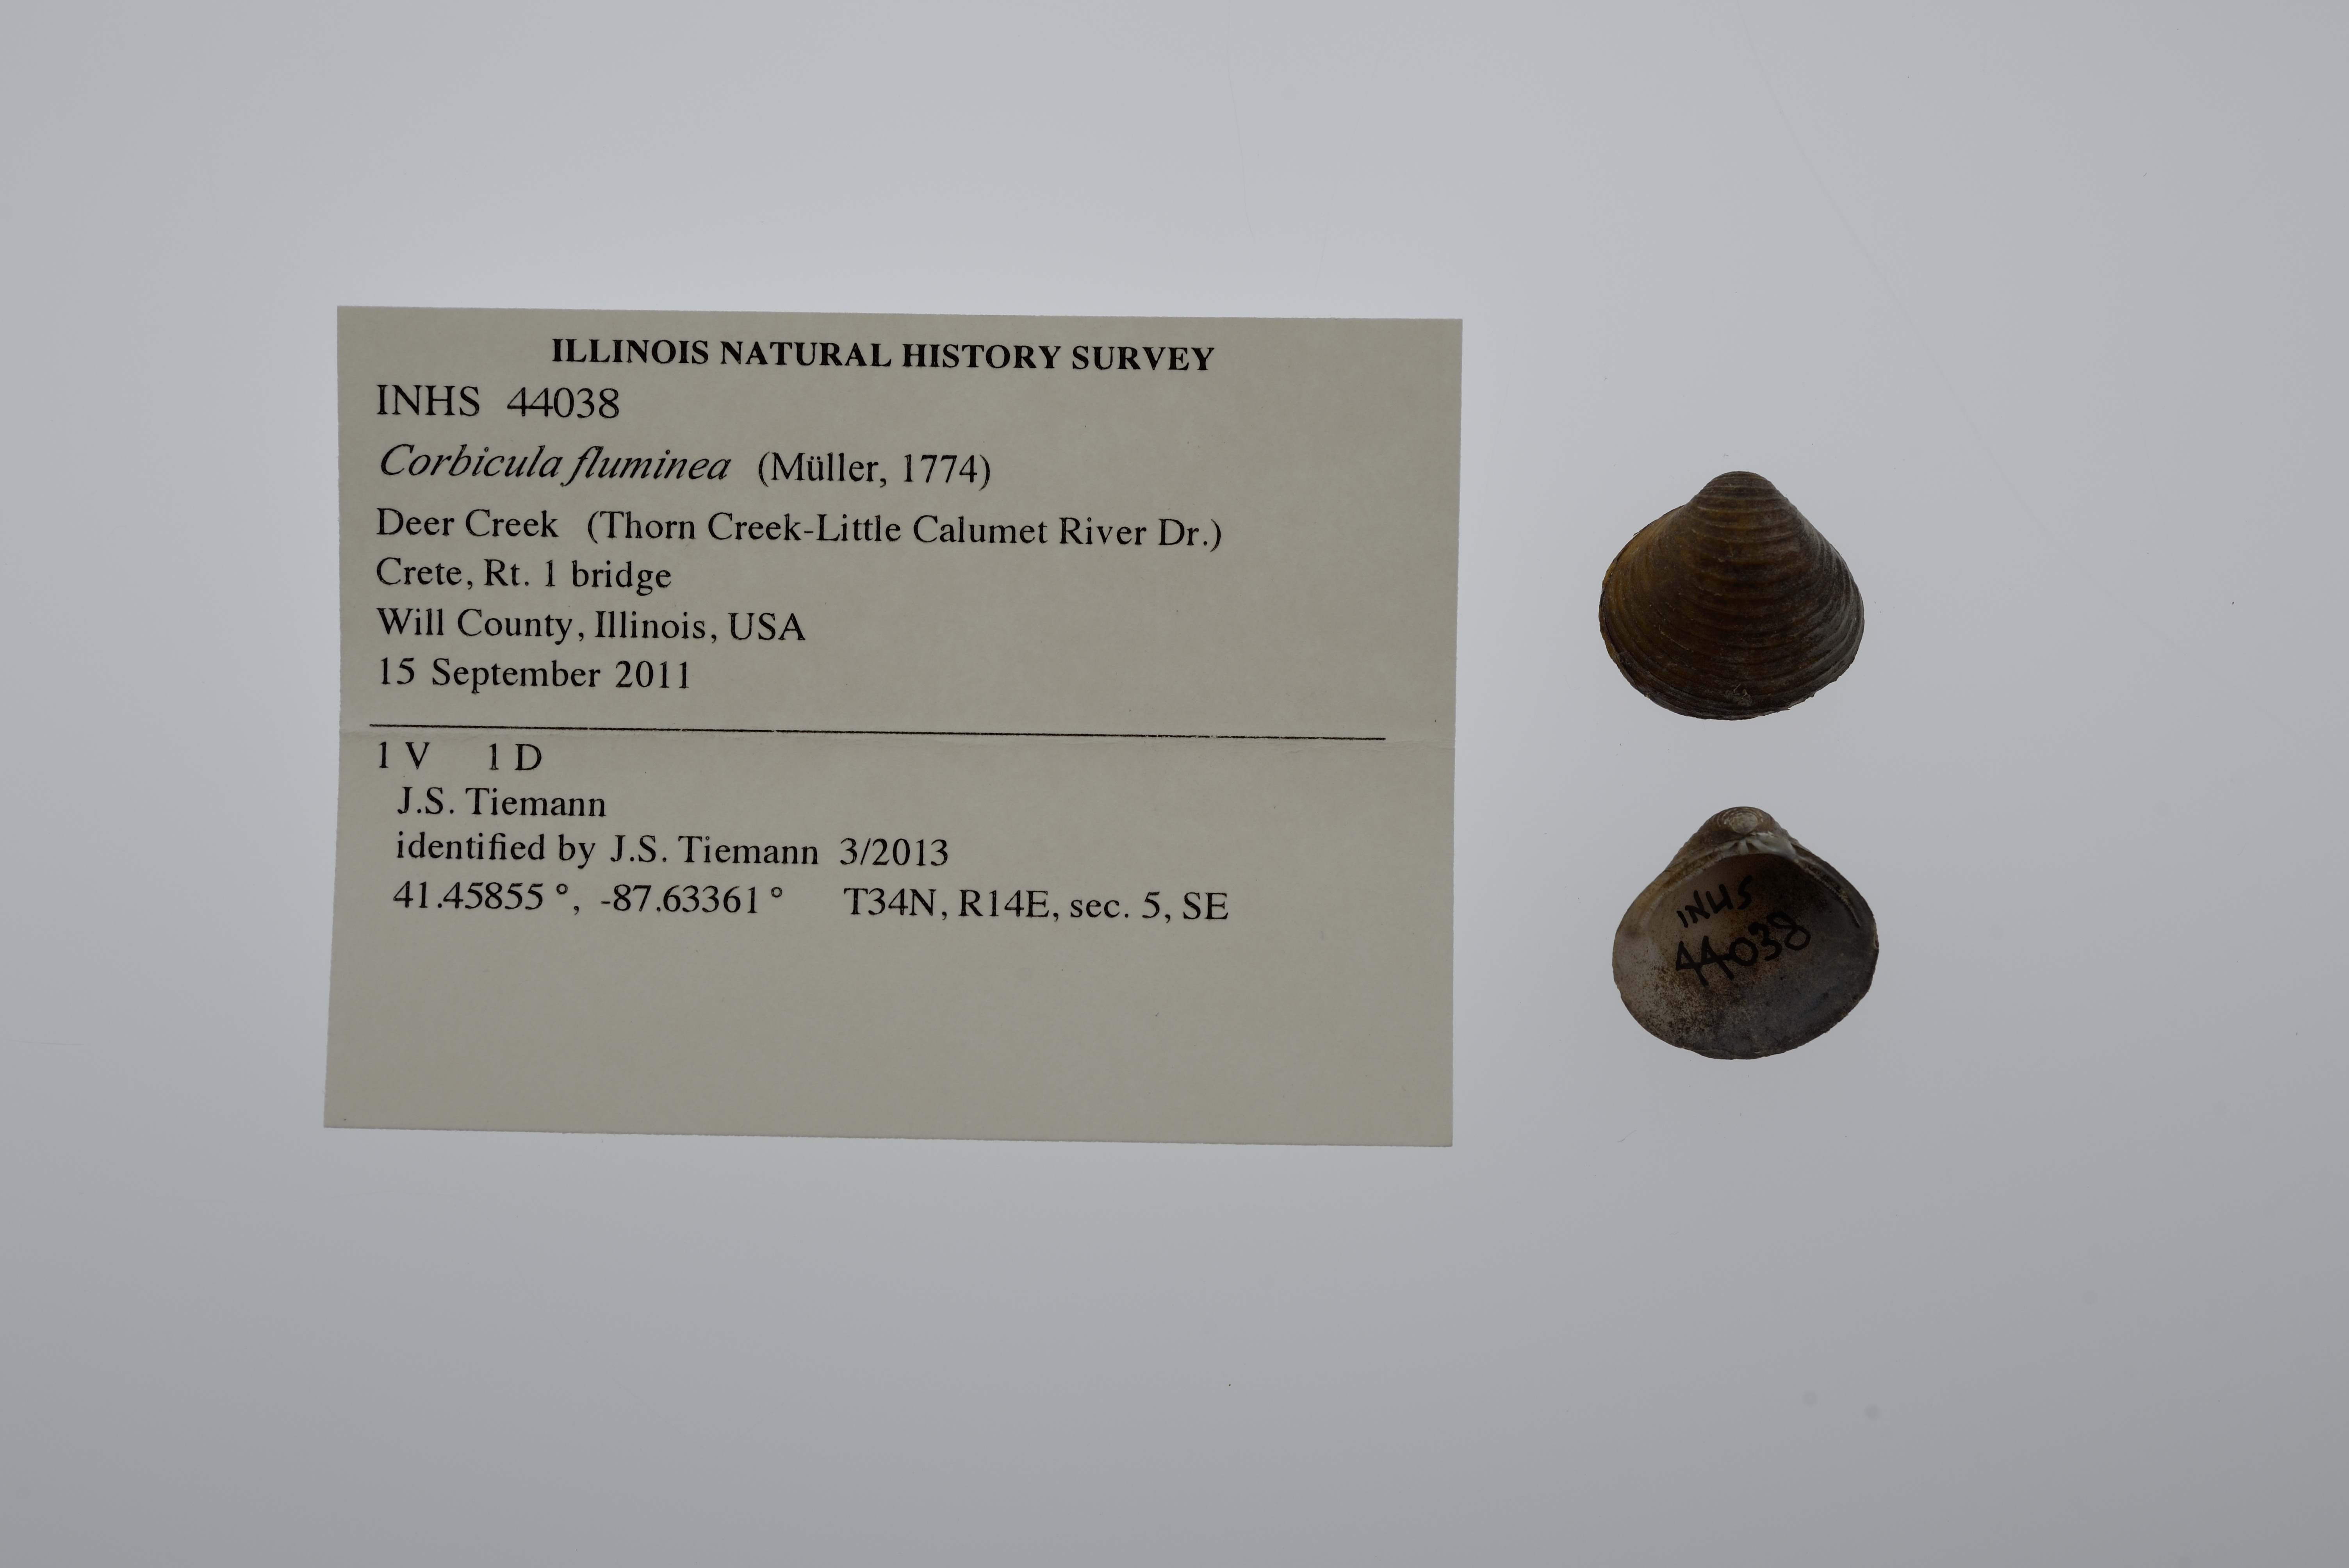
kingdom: Animalia
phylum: Mollusca
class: Bivalvia
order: Venerida
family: Cyrenidae
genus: Corbicula
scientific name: Corbicula fluminea
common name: Asian clam
